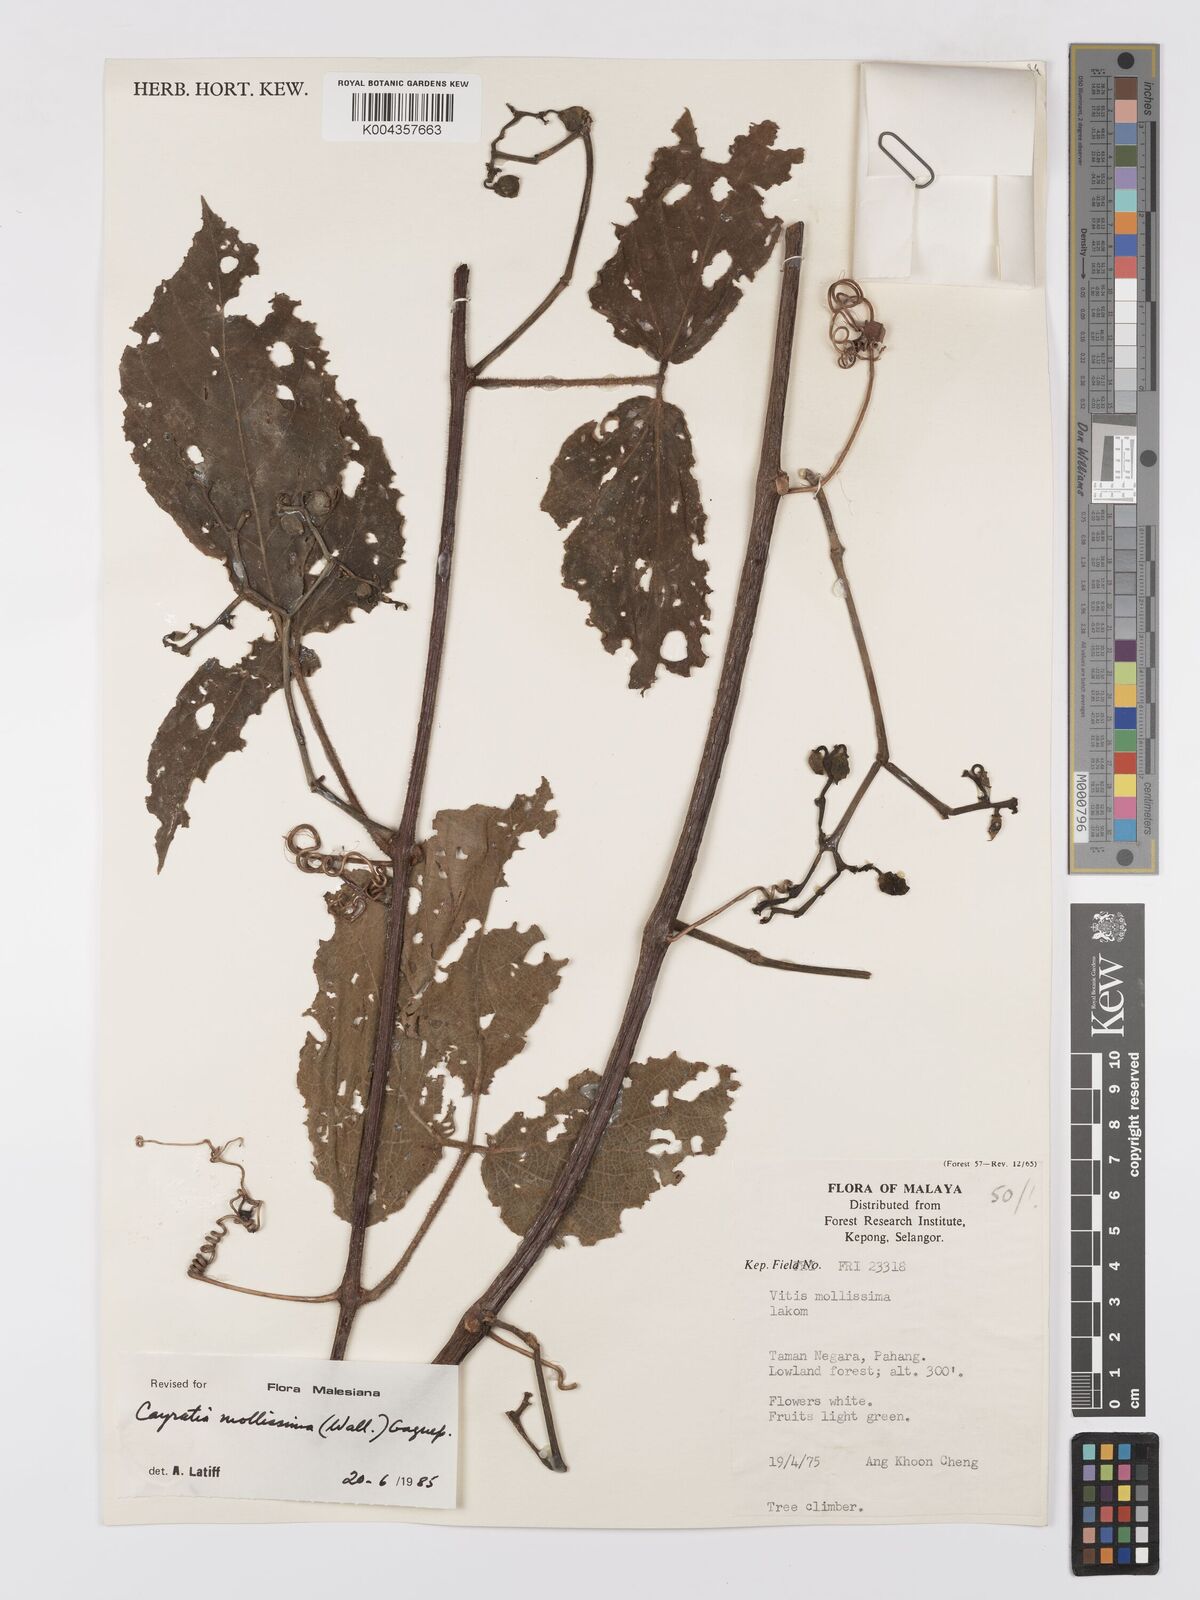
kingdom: Plantae
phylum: Tracheophyta
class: Magnoliopsida
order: Vitales
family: Vitaceae
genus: Cayratia
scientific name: Cayratia mollissima
